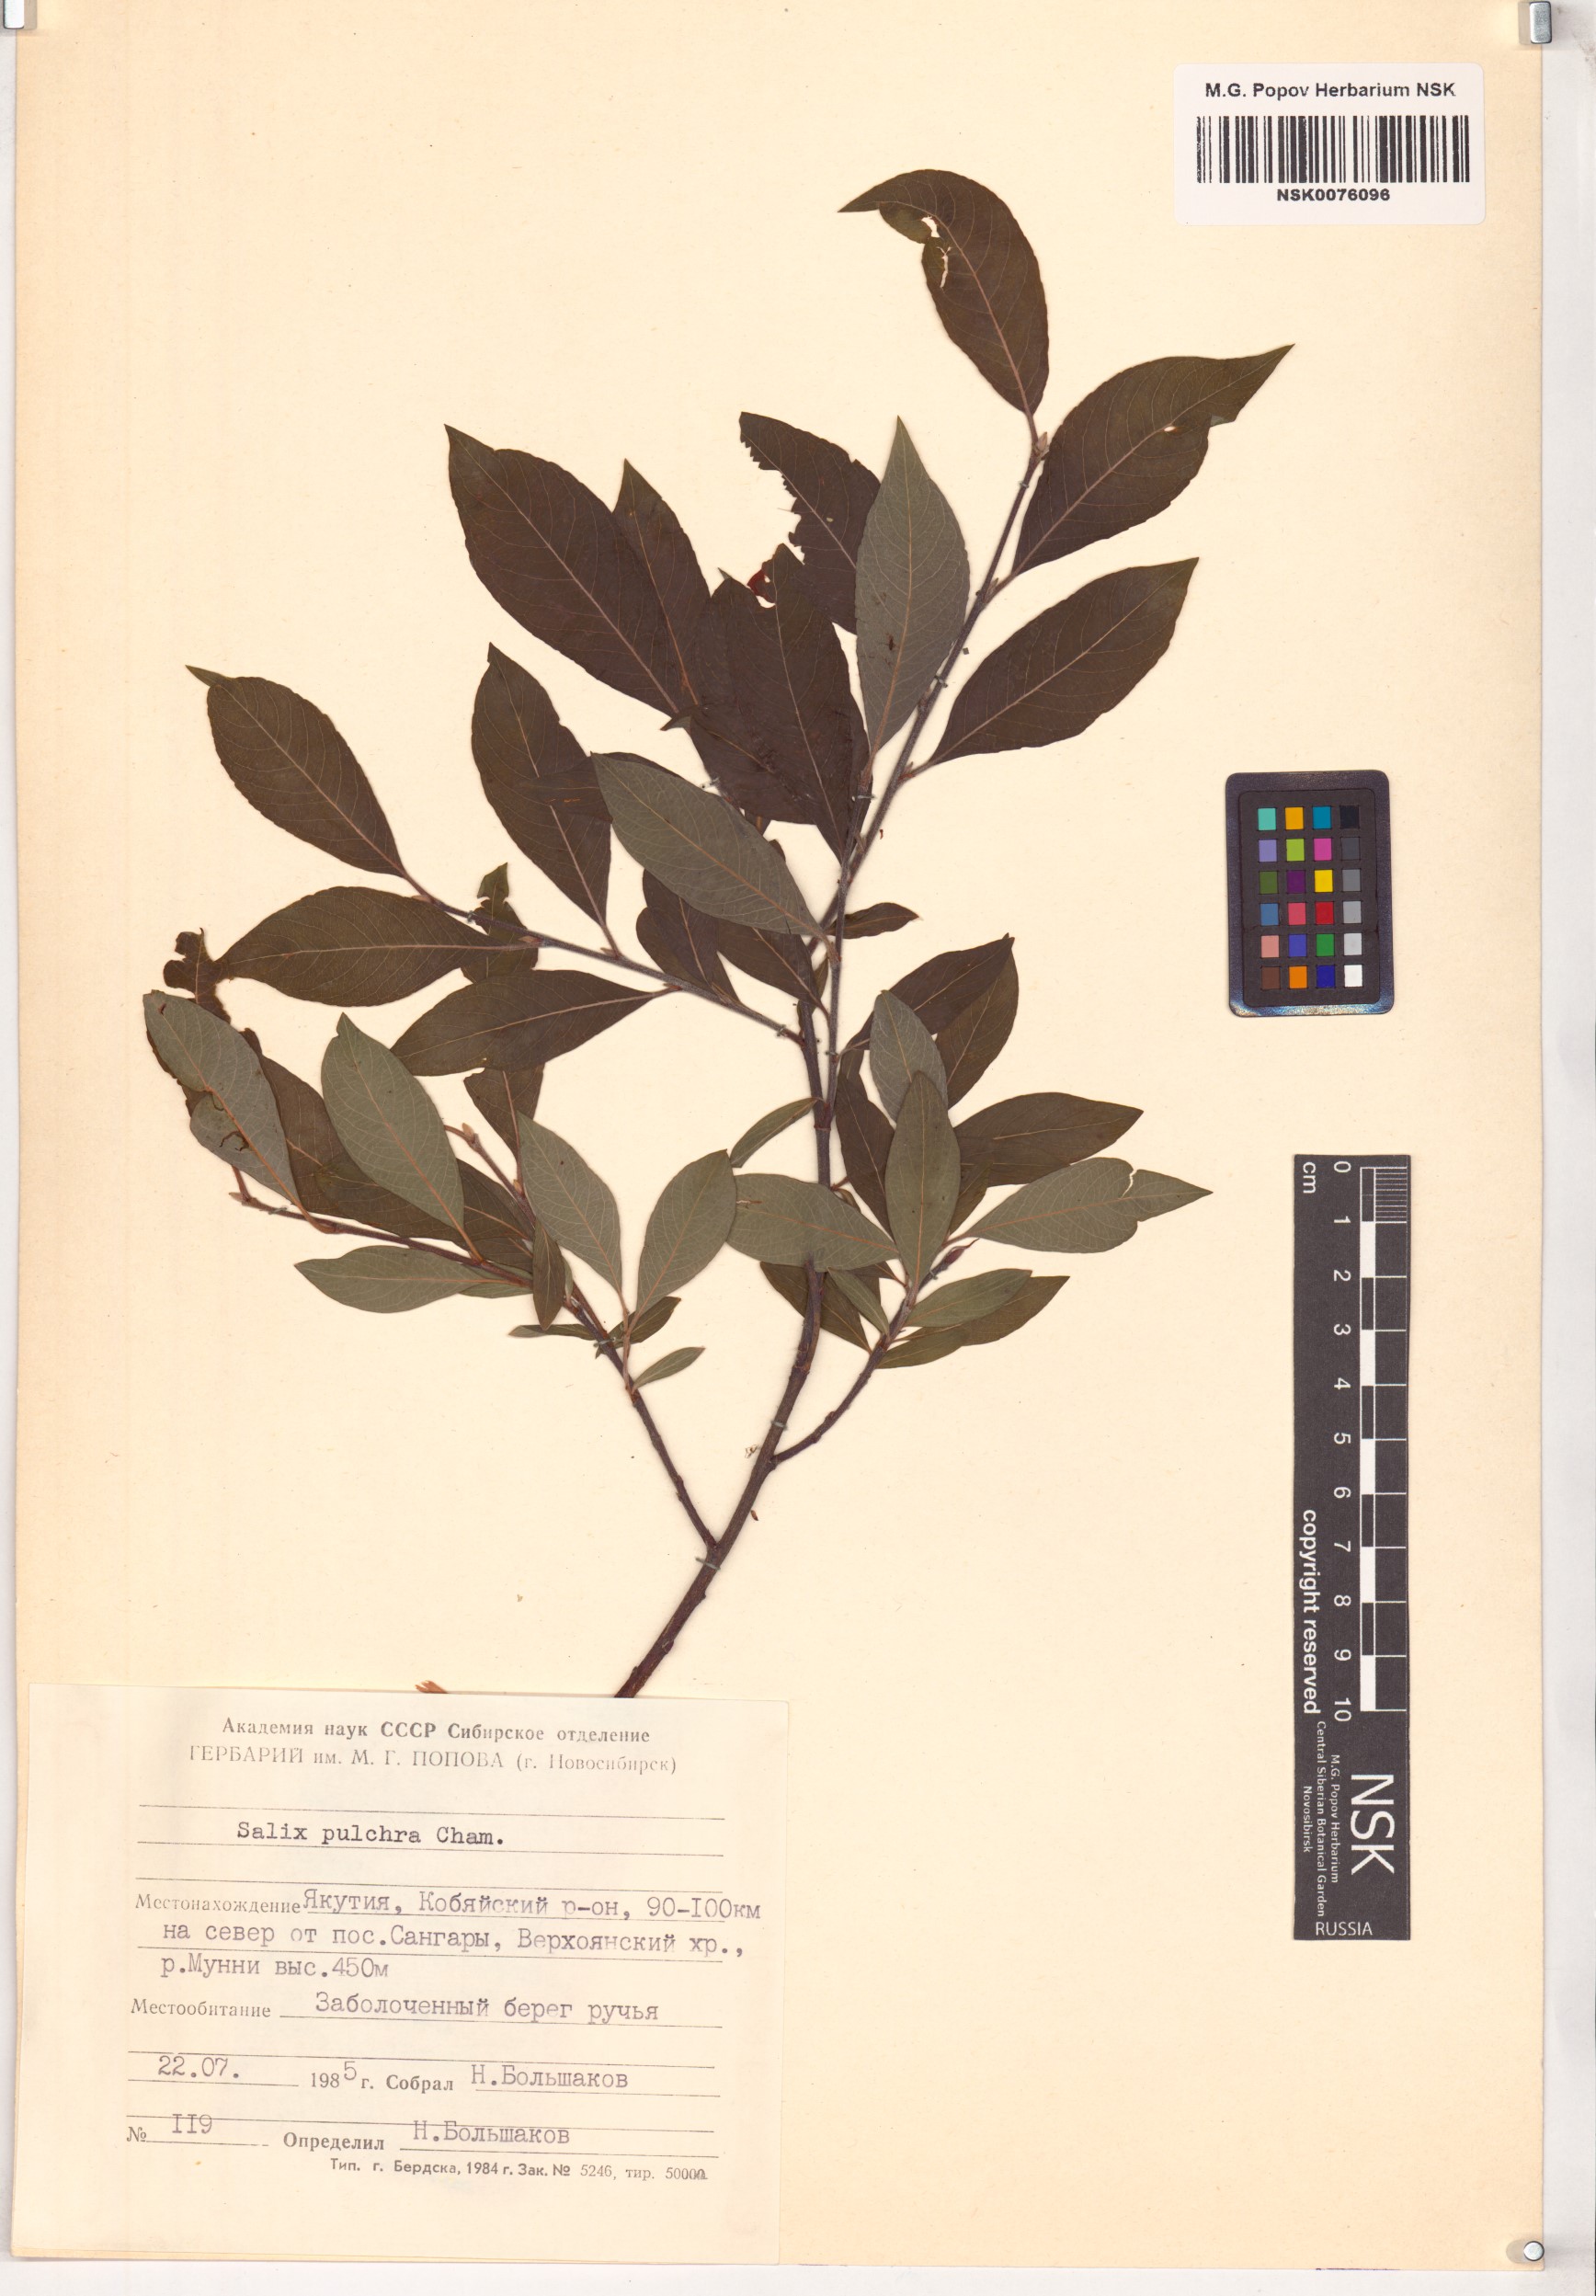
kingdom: Plantae
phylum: Tracheophyta
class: Magnoliopsida
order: Malpighiales
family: Salicaceae
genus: Salix
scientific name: Salix pulchra
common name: Diamond-leaved willow
